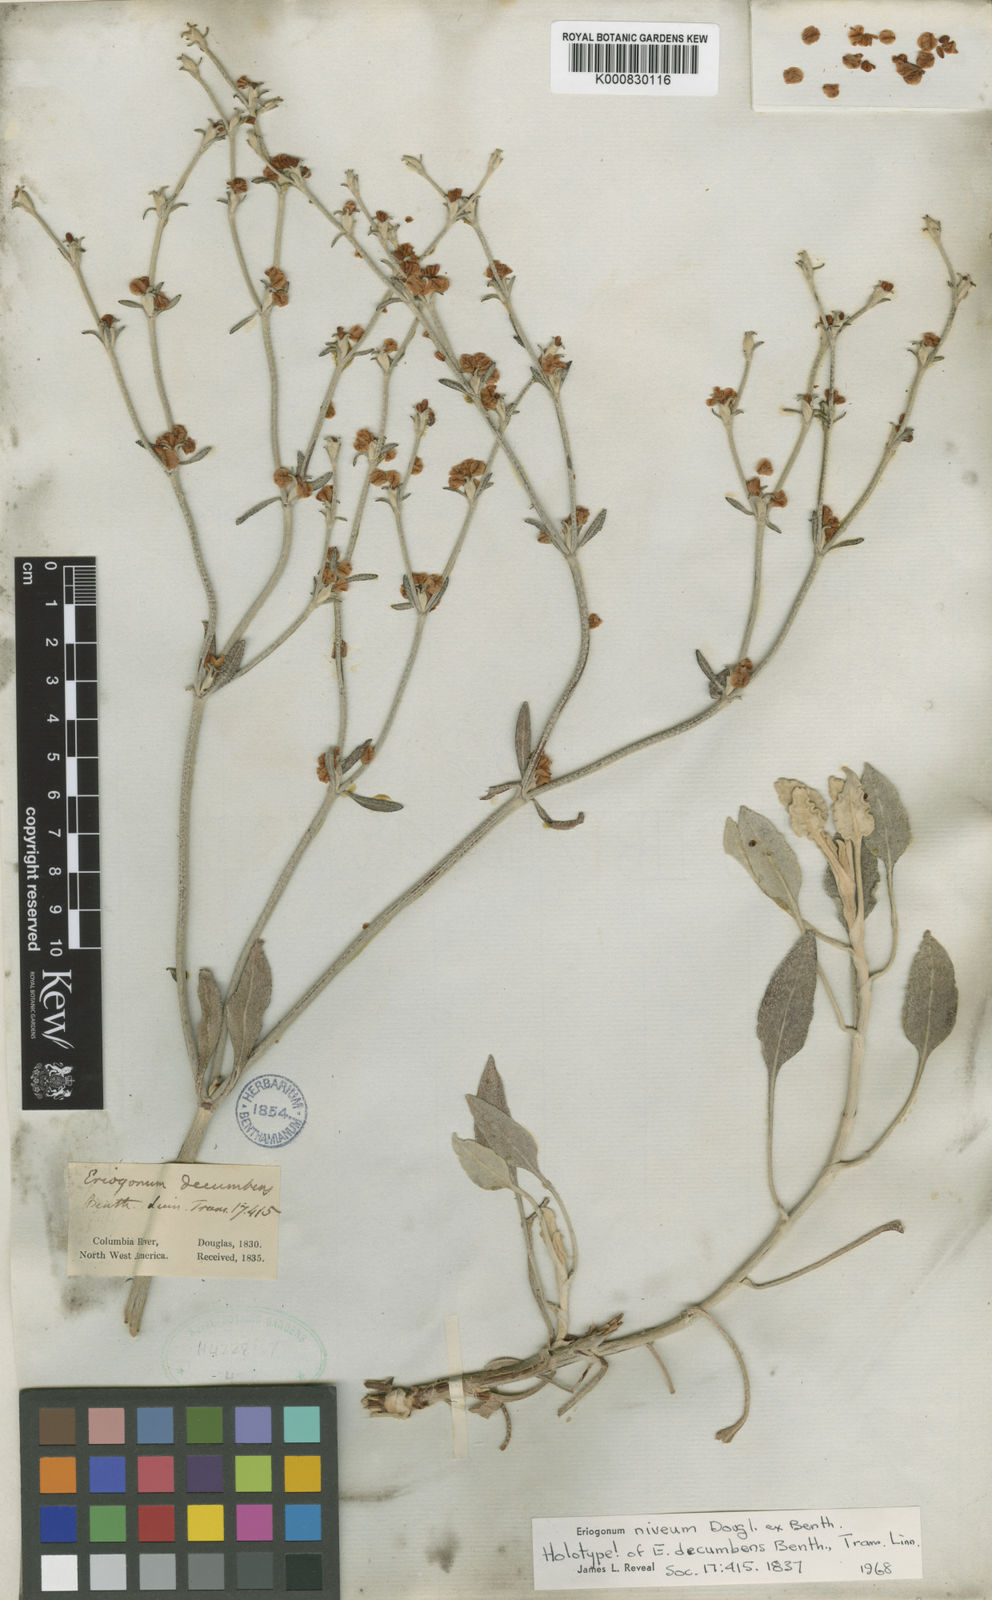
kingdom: Plantae
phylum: Tracheophyta
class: Magnoliopsida
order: Caryophyllales
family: Polygonaceae
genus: Eriogonum
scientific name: Eriogonum niveum
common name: Snow wild buckwheat
